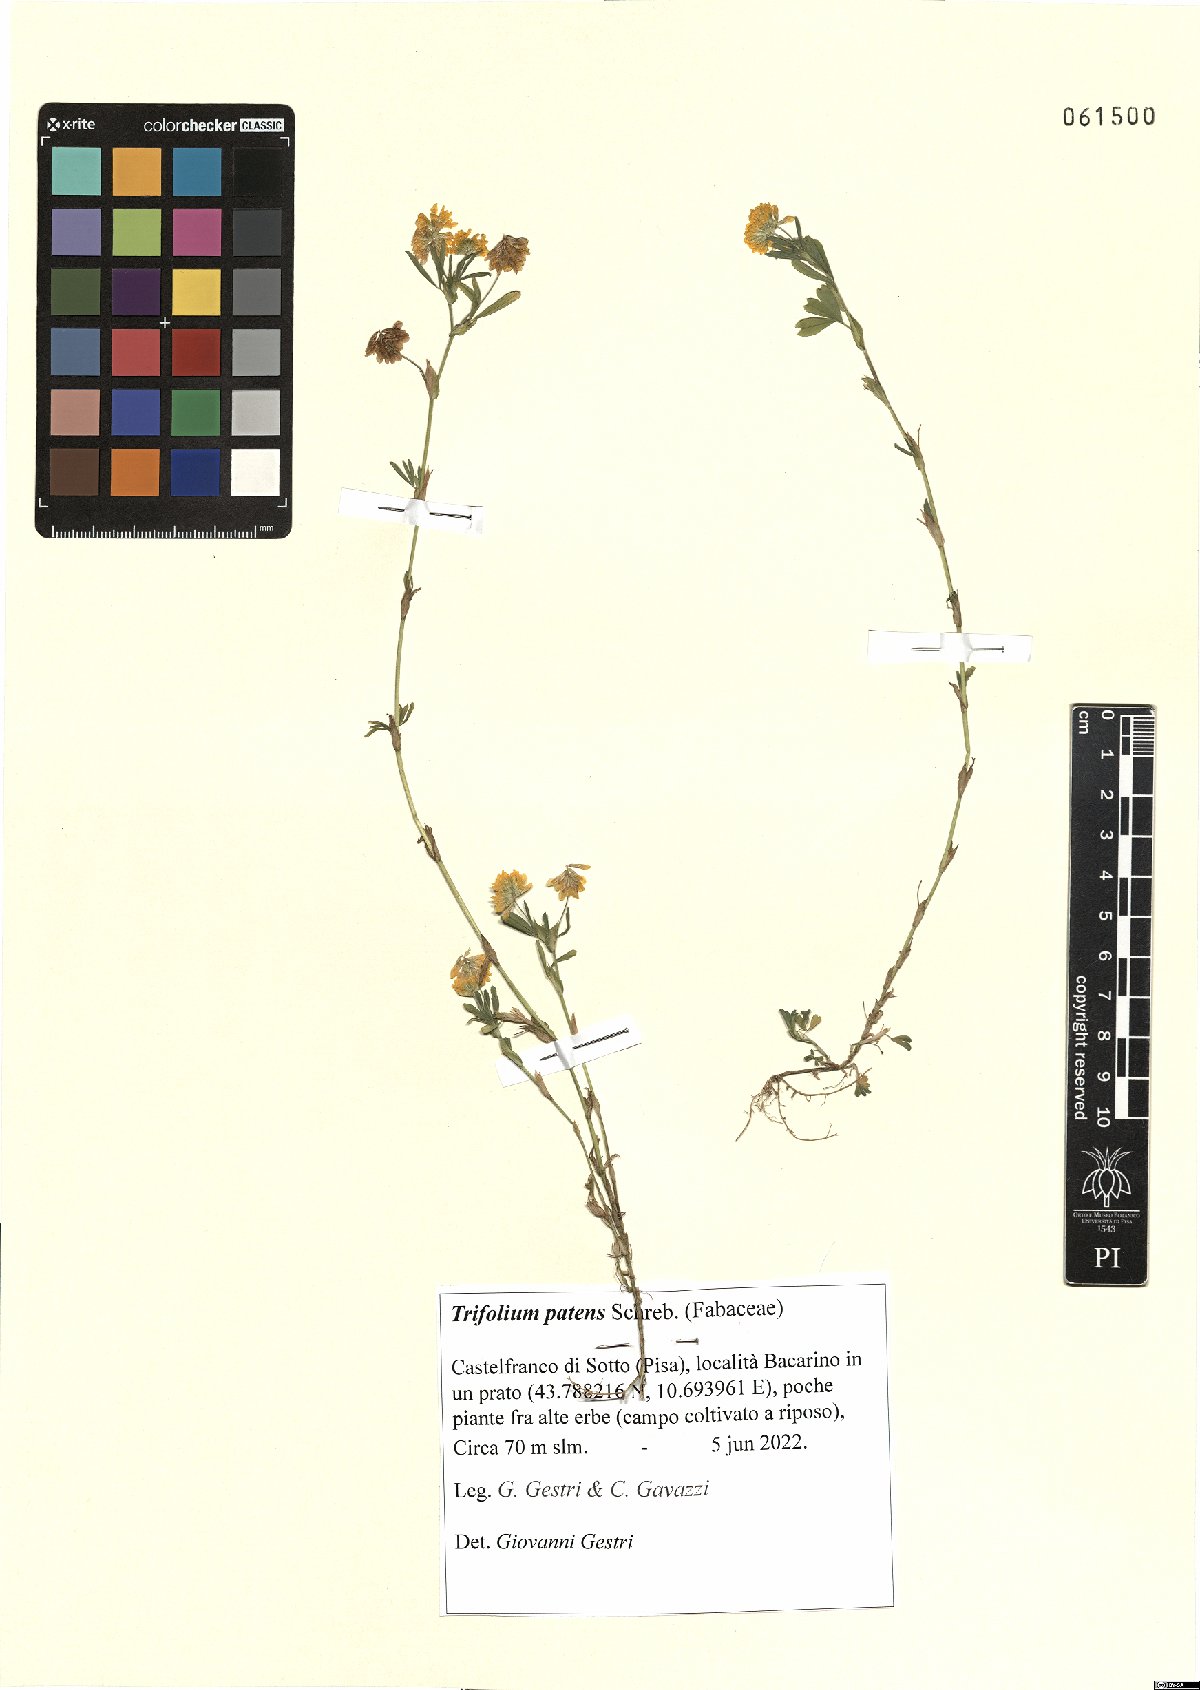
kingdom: Plantae
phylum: Tracheophyta
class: Magnoliopsida
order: Fabales
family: Fabaceae
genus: Trifolium
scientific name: Trifolium patens
